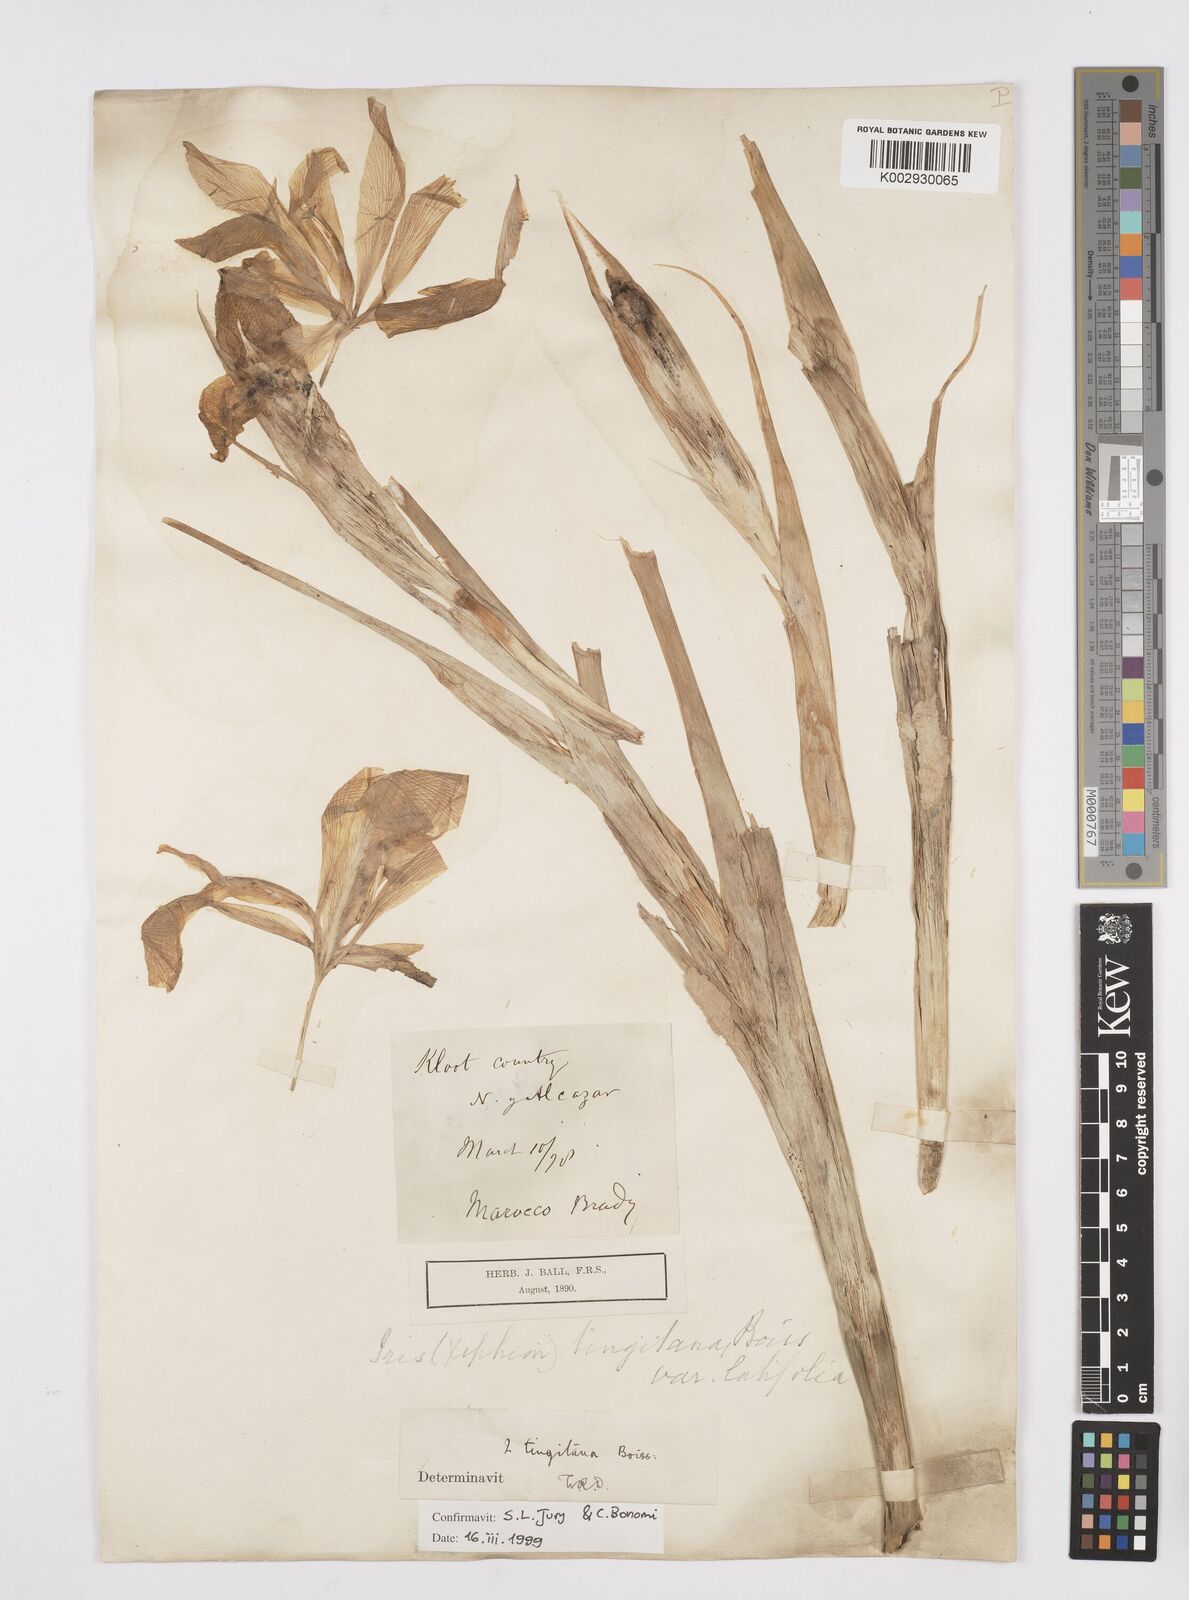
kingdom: Plantae
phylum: Tracheophyta
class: Liliopsida
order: Asparagales
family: Iridaceae
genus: Iris
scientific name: Iris tingitana
